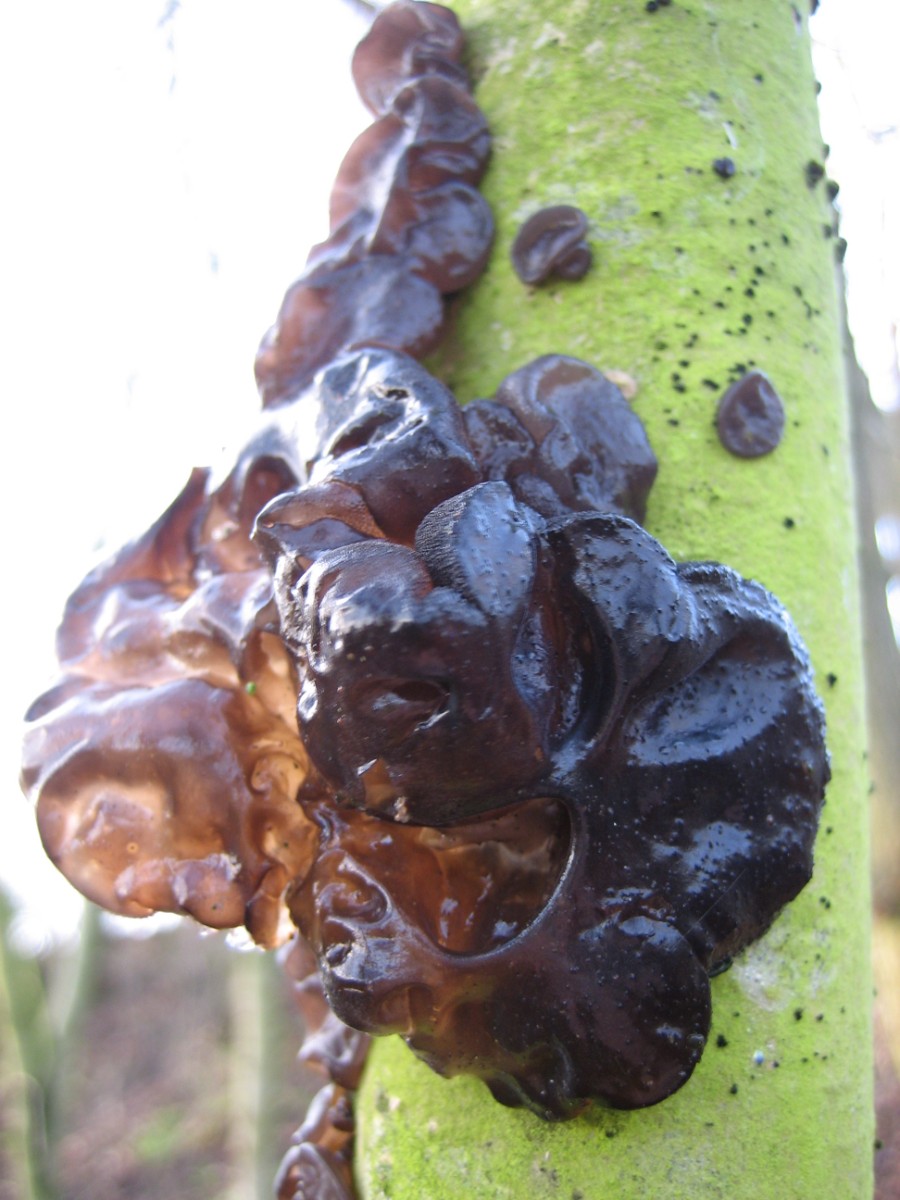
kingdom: Fungi
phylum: Basidiomycota
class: Agaricomycetes
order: Auriculariales
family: Auriculariaceae
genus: Exidia
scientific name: Exidia glandulosa
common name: ege-bævretop
